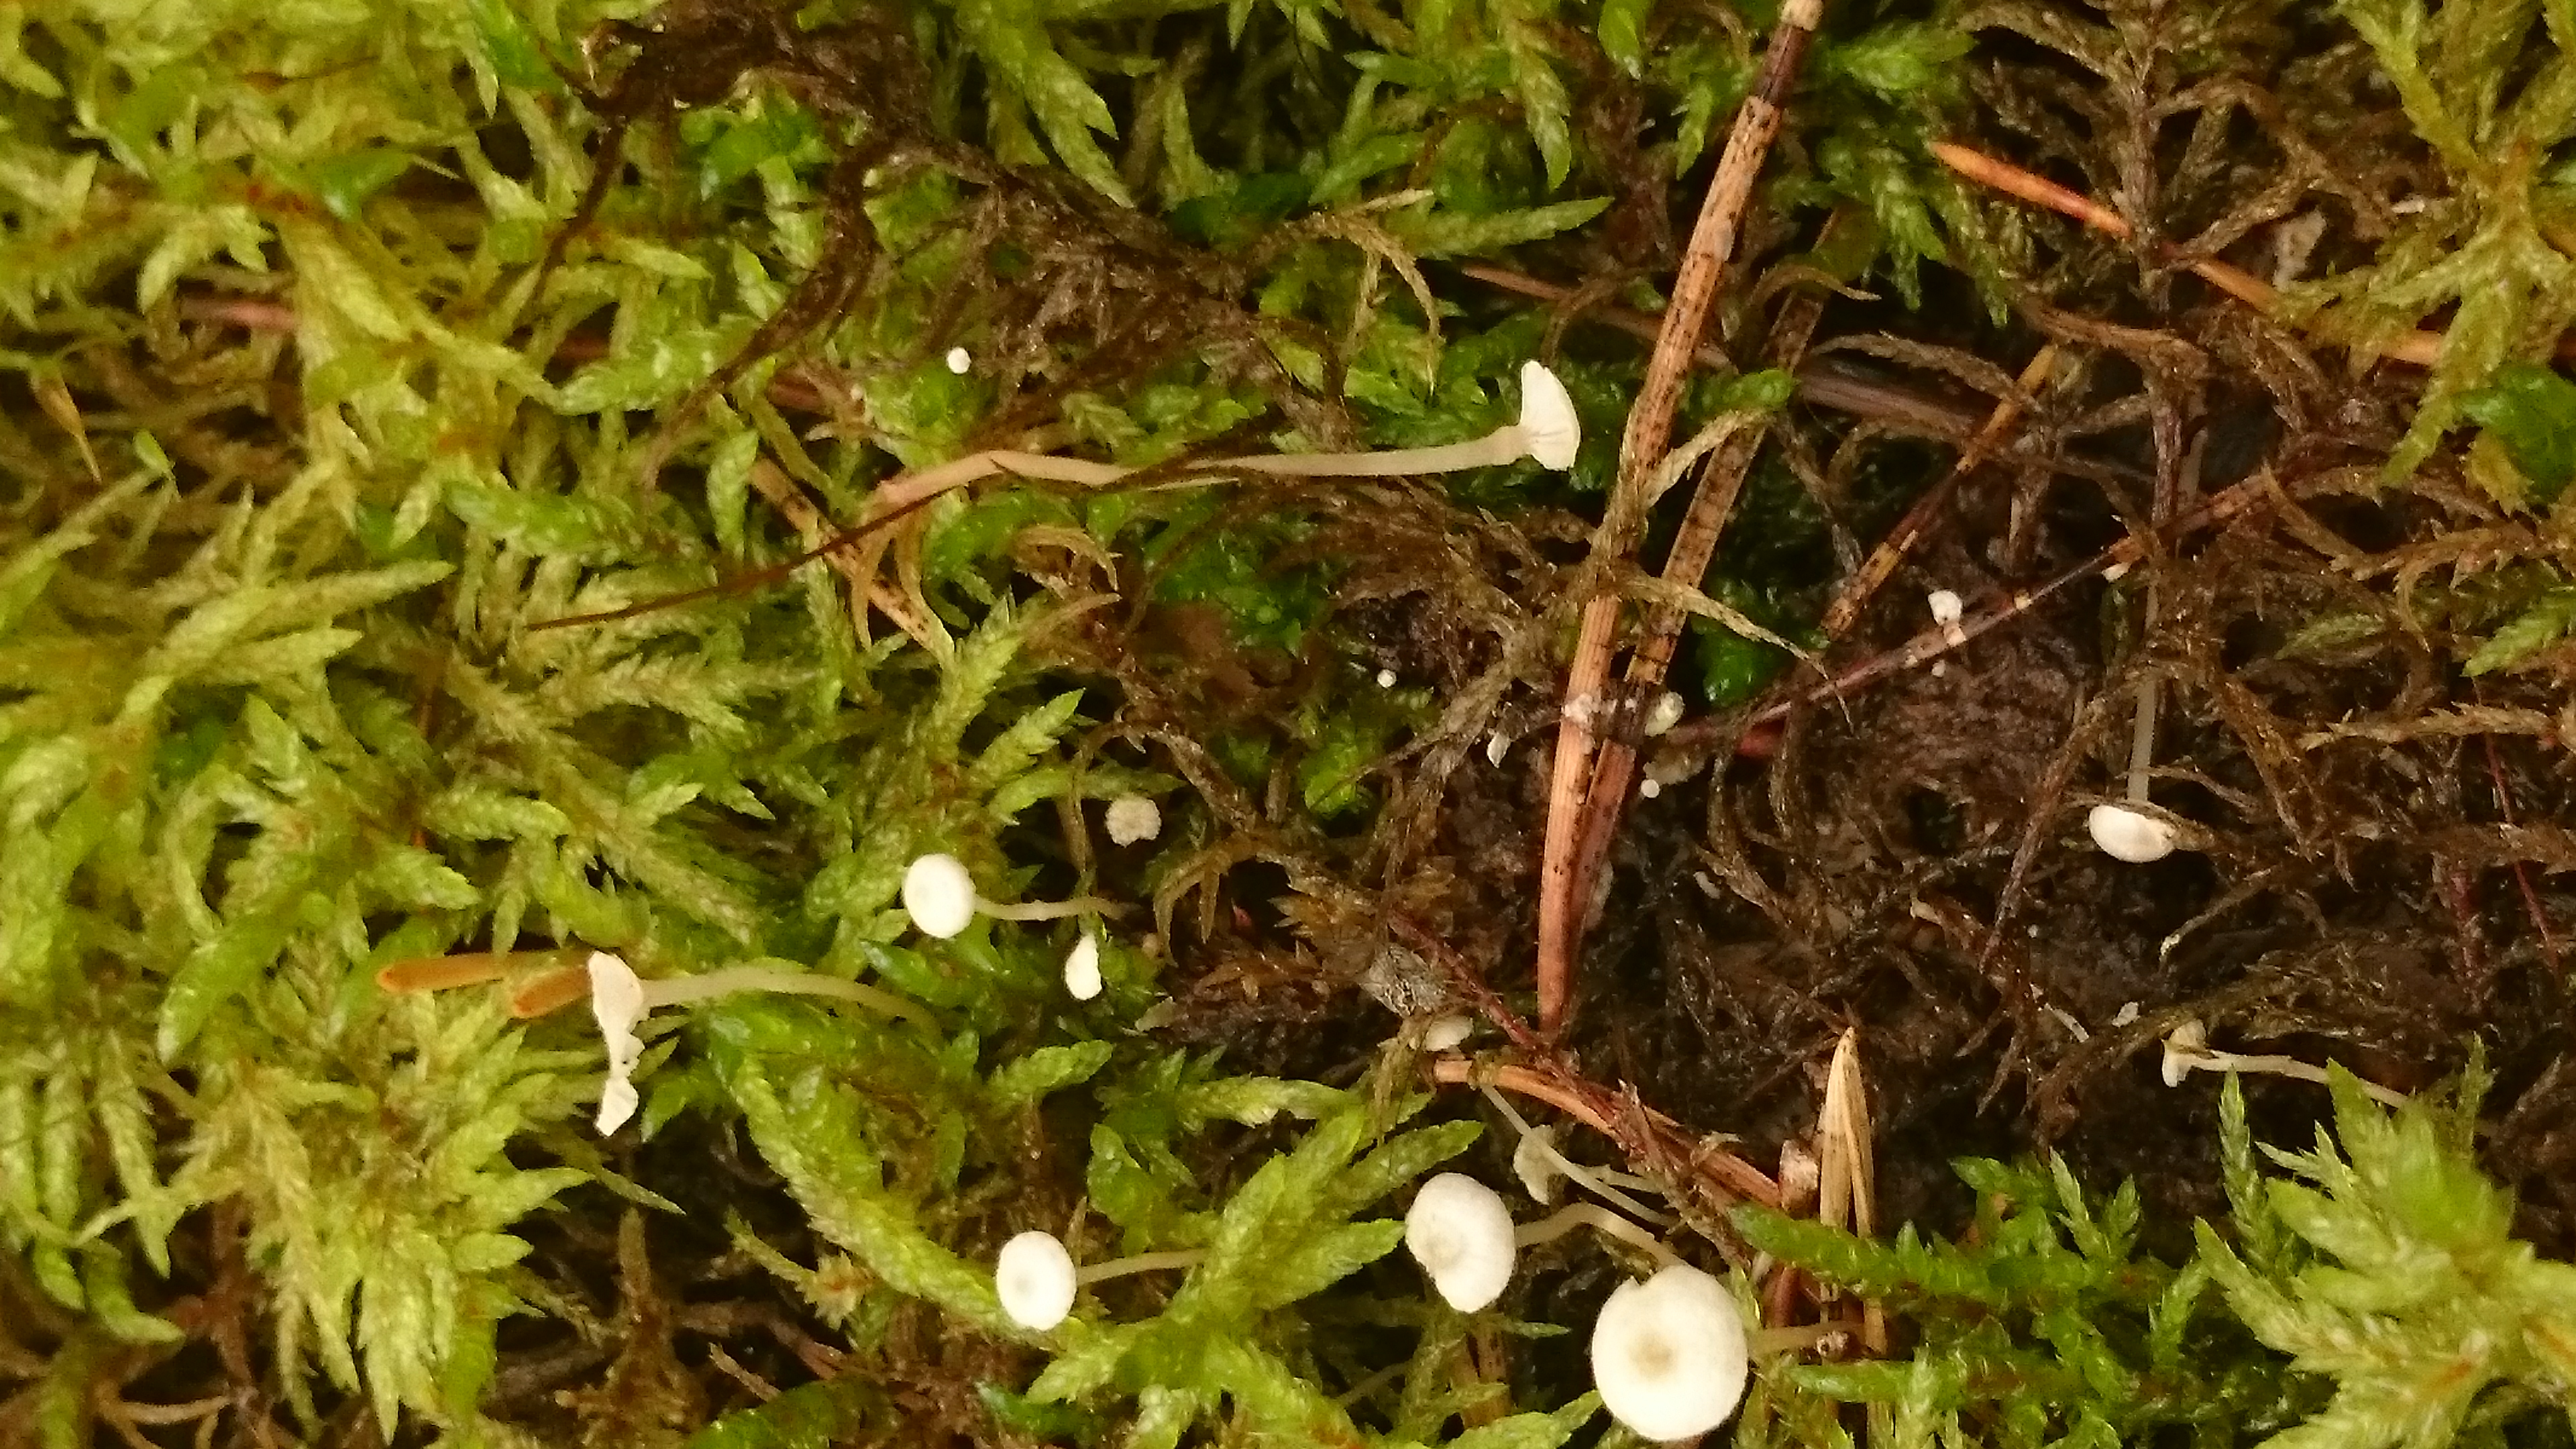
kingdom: Fungi
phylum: Basidiomycota
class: Agaricomycetes
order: Agaricales
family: Tricholomataceae
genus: Collybia
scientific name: Collybia cirrhata
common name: Piggyback shanklet
